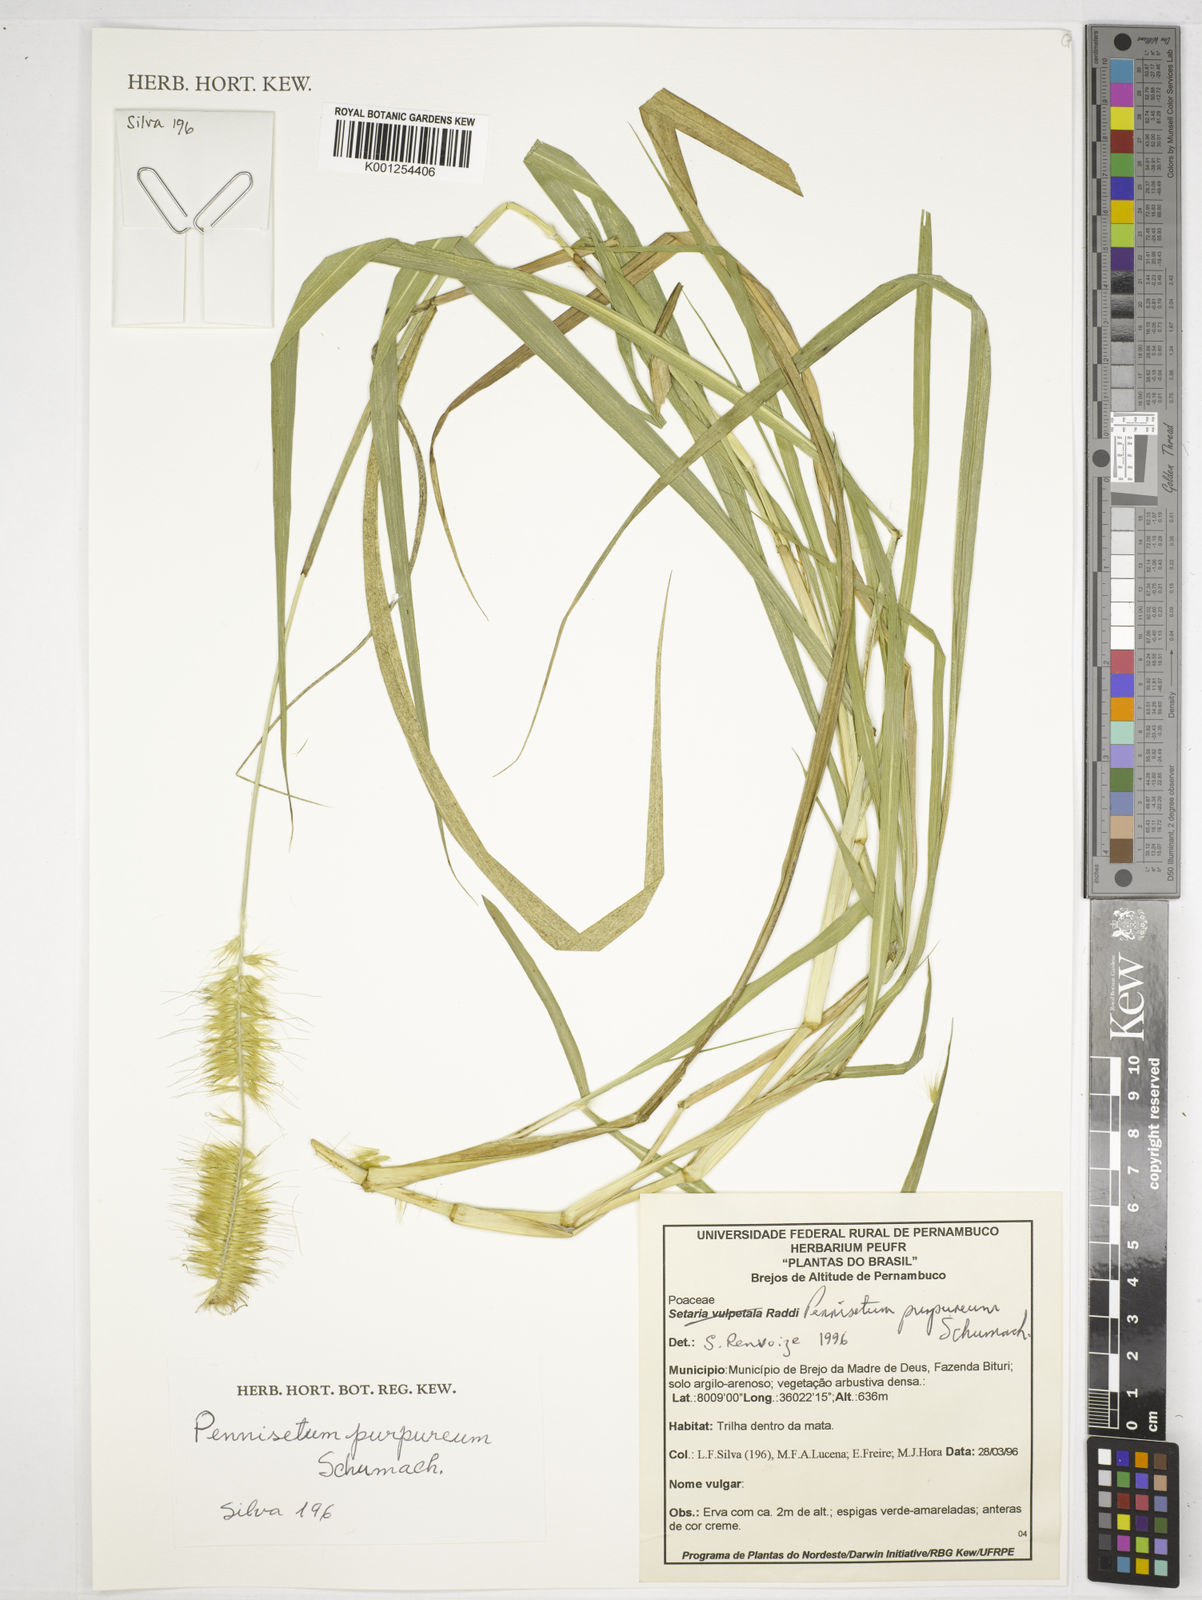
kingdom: Plantae
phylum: Tracheophyta
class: Liliopsida
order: Poales
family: Poaceae
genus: Cenchrus
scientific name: Cenchrus purpureus
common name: Elephant grass
